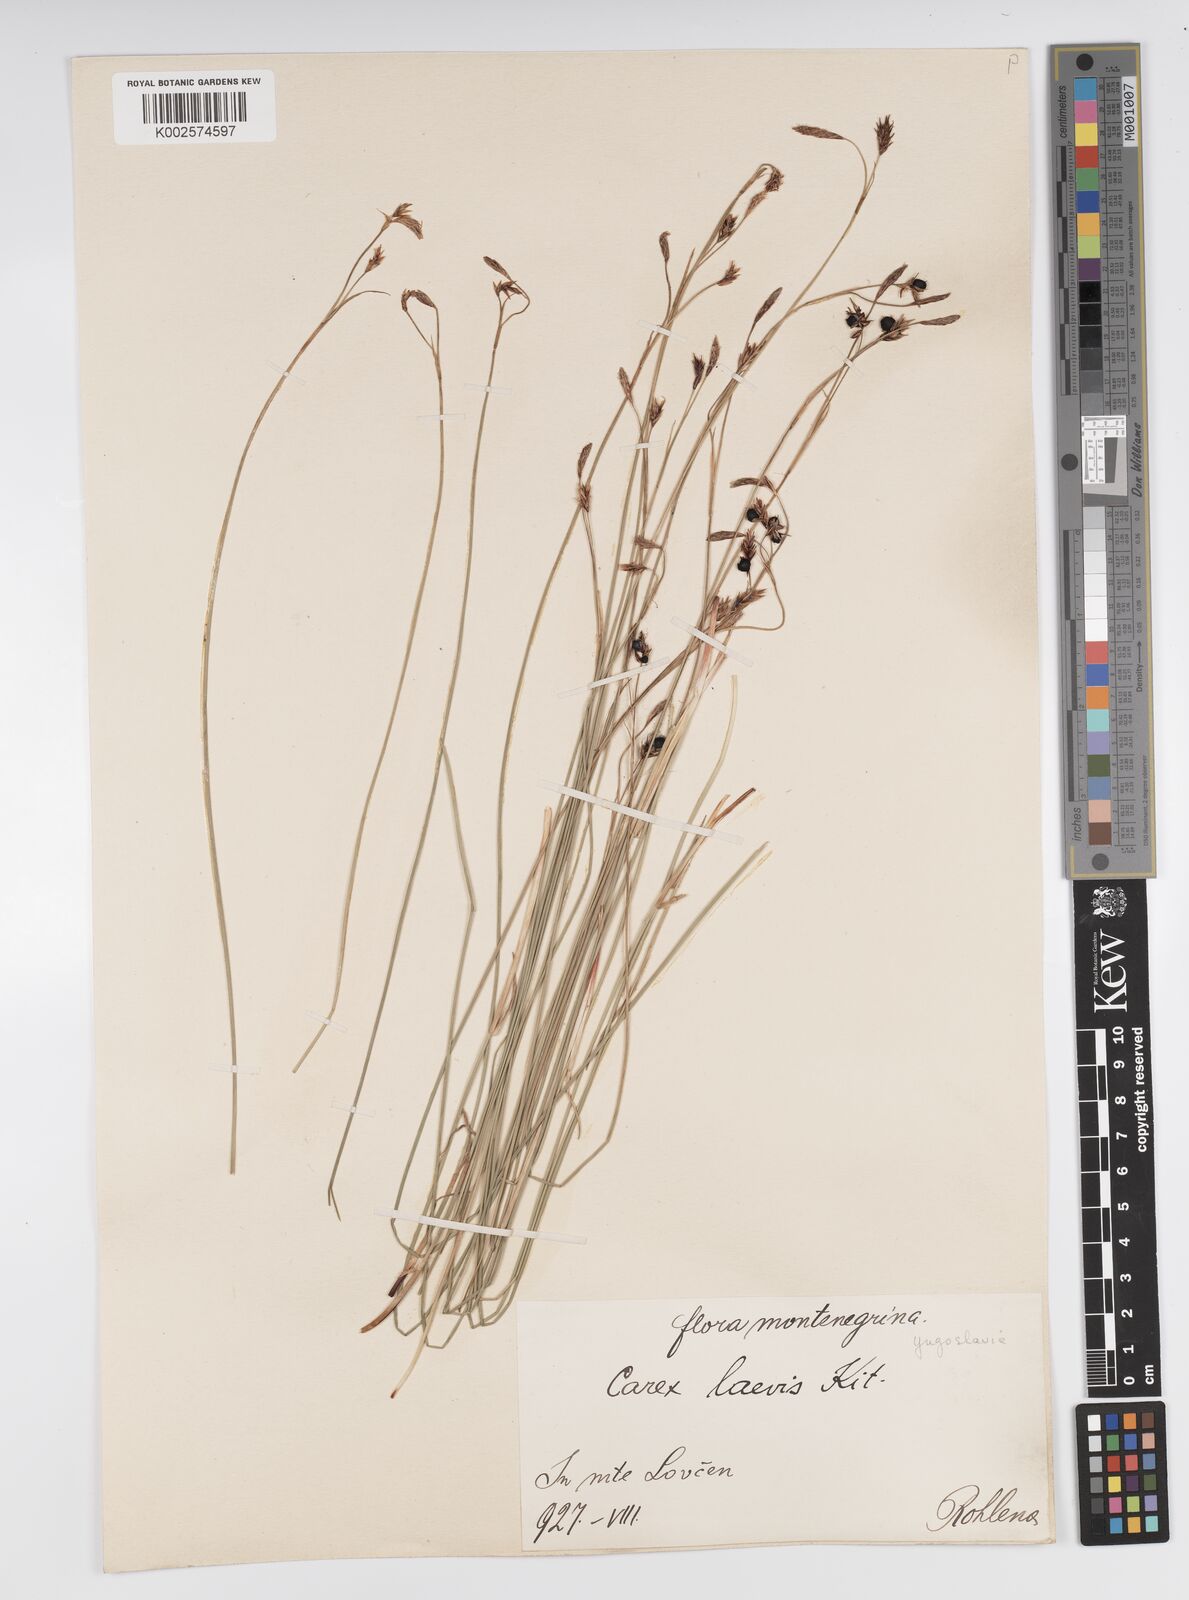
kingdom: Plantae
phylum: Tracheophyta
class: Liliopsida
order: Poales
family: Cyperaceae
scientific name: Cyperaceae
